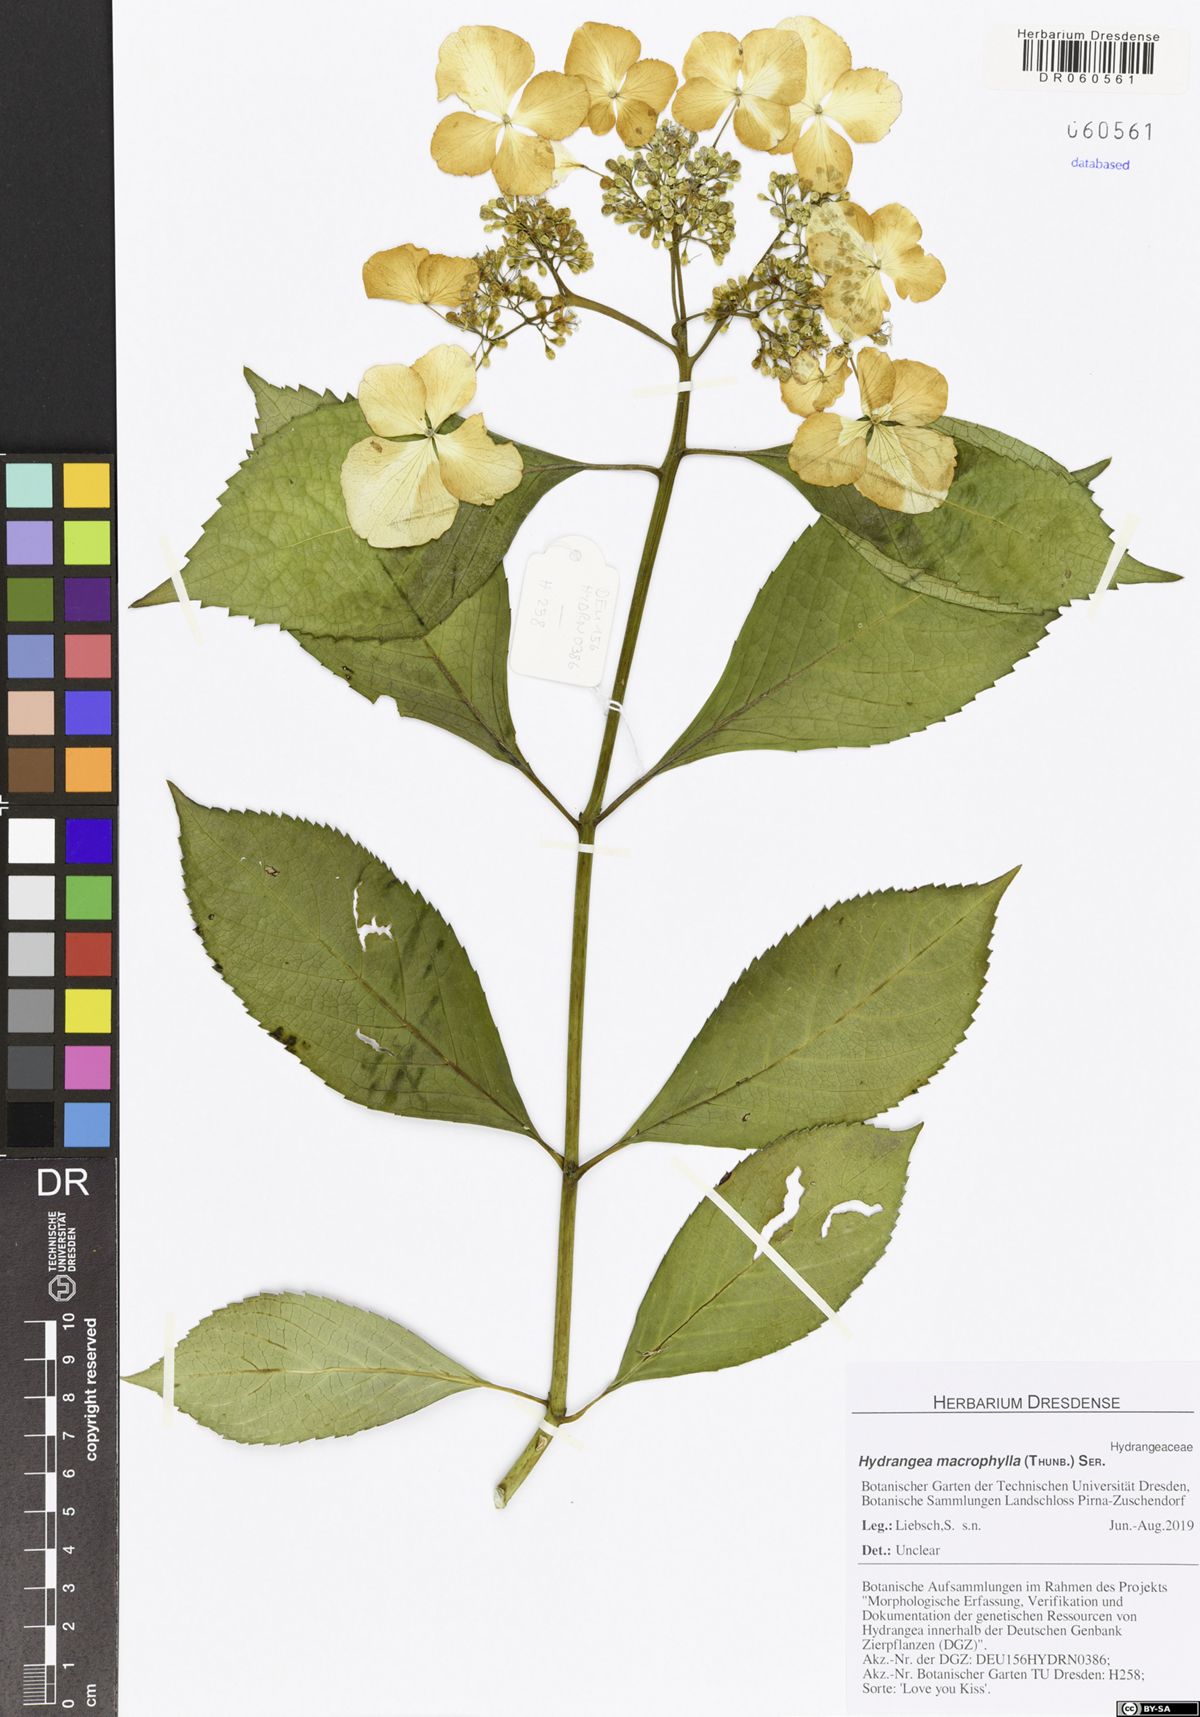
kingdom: Plantae
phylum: Tracheophyta
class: Magnoliopsida
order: Cornales
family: Hydrangeaceae
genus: Hydrangea
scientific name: Hydrangea macrophylla
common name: Hydrangea
